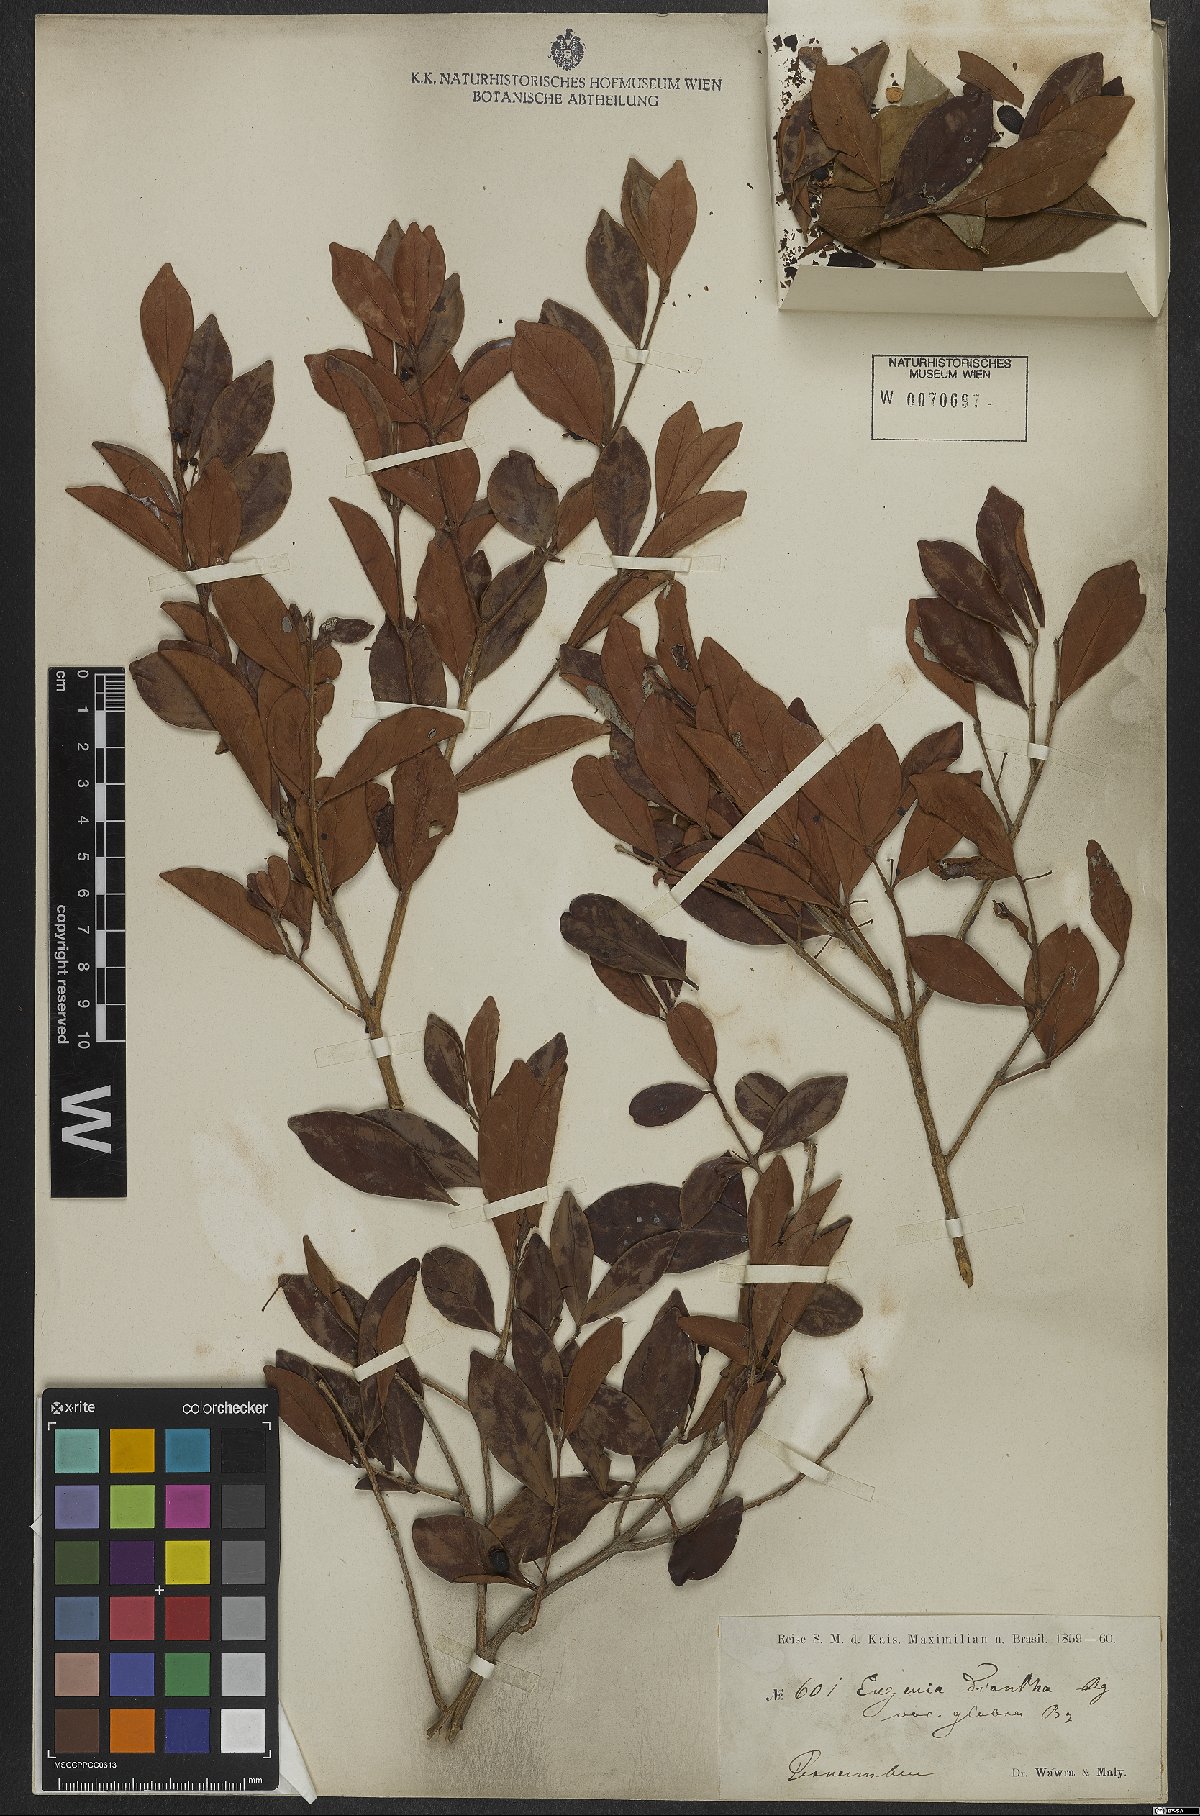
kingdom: Plantae
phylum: Tracheophyta
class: Magnoliopsida
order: Myrtales
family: Myrtaceae
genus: Eugenia
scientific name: Eugenia diantha
